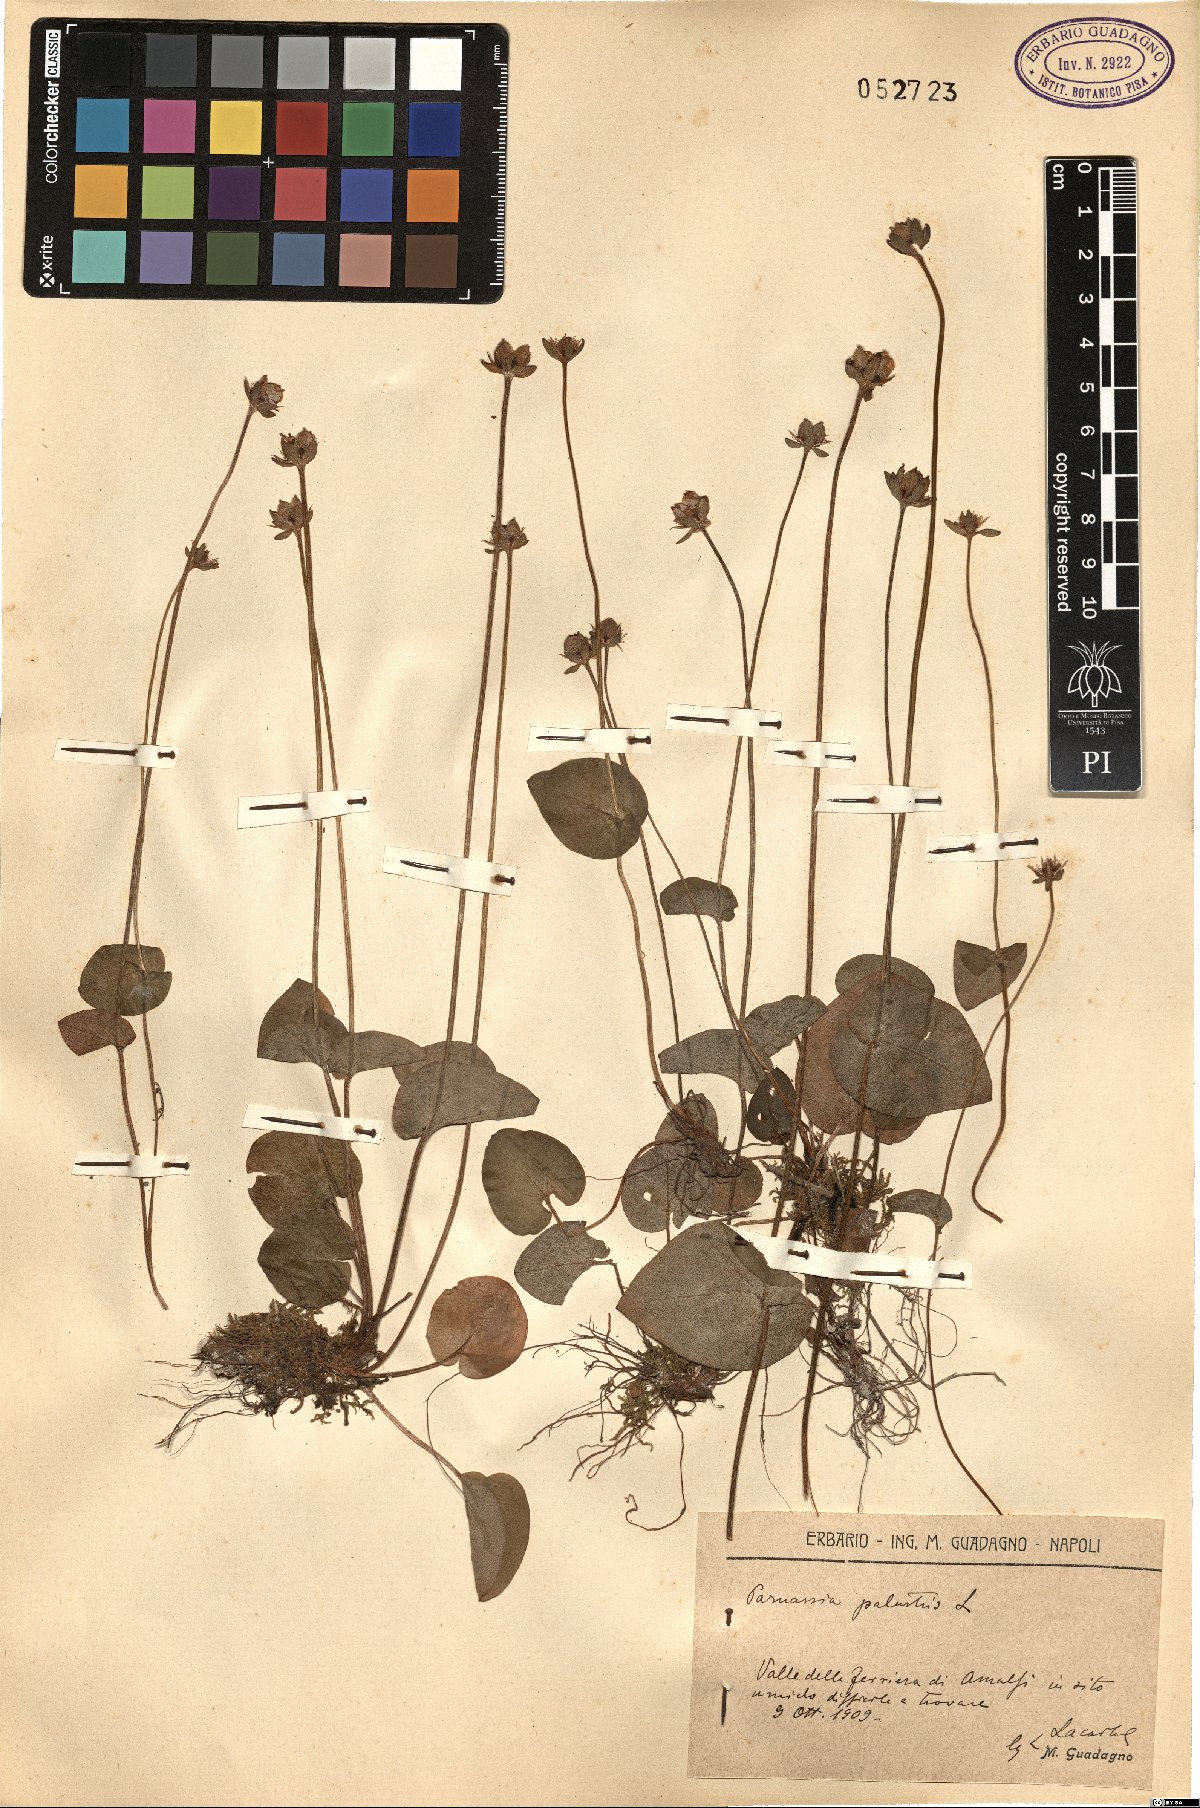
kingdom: Plantae
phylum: Tracheophyta
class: Magnoliopsida
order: Celastrales
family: Parnassiaceae
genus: Parnassia
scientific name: Parnassia palustris
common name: Grass-of-parnassus
